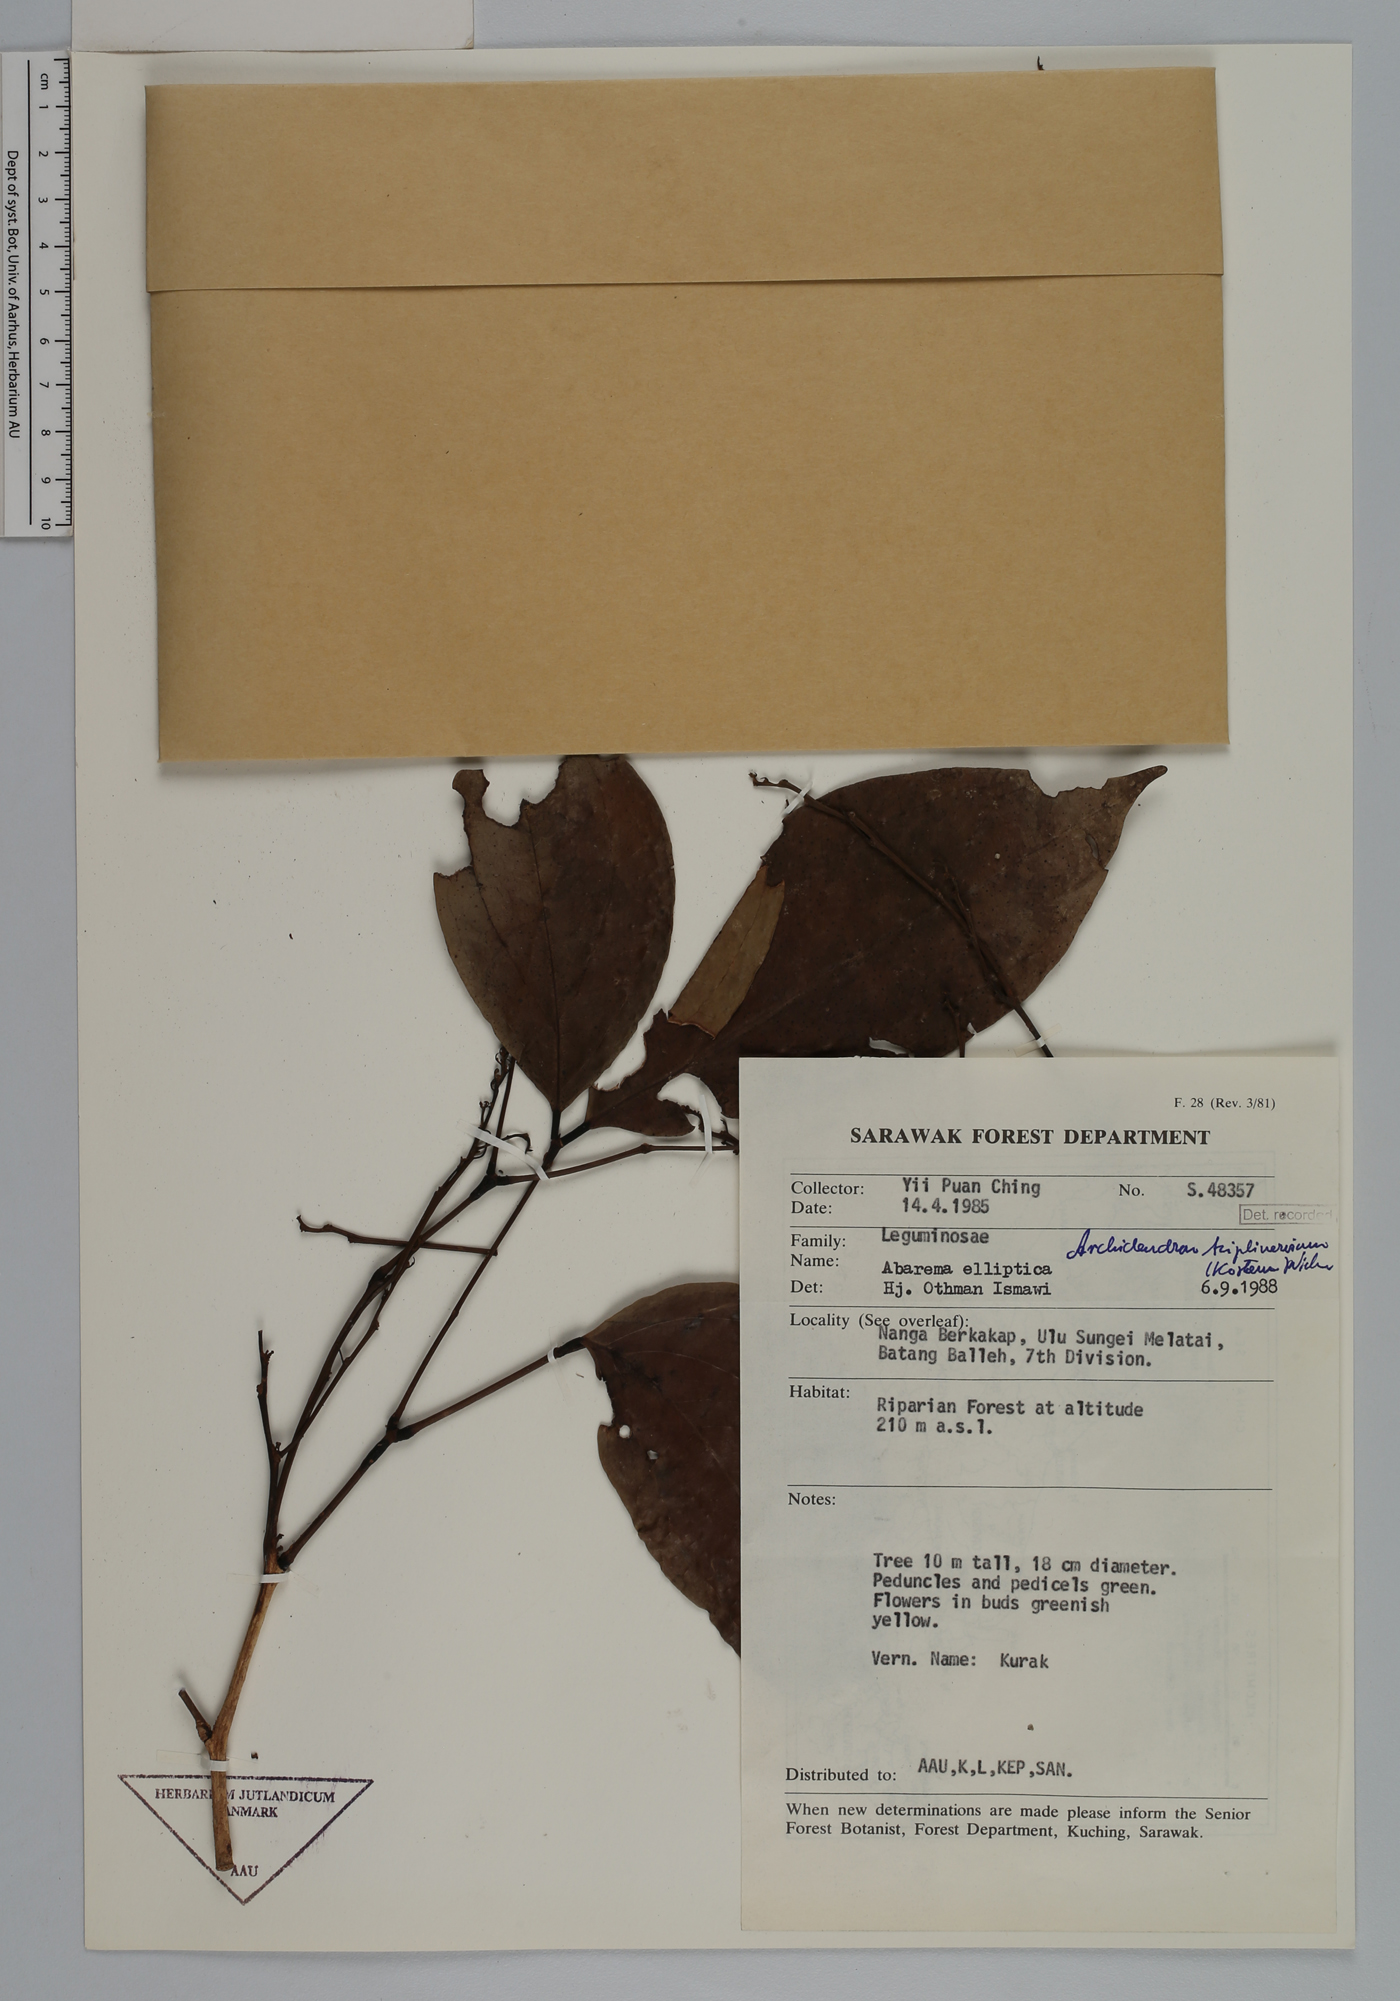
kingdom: Plantae
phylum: Tracheophyta
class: Magnoliopsida
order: Fabales
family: Fabaceae
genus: Archidendron
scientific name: Archidendron triplinervium
